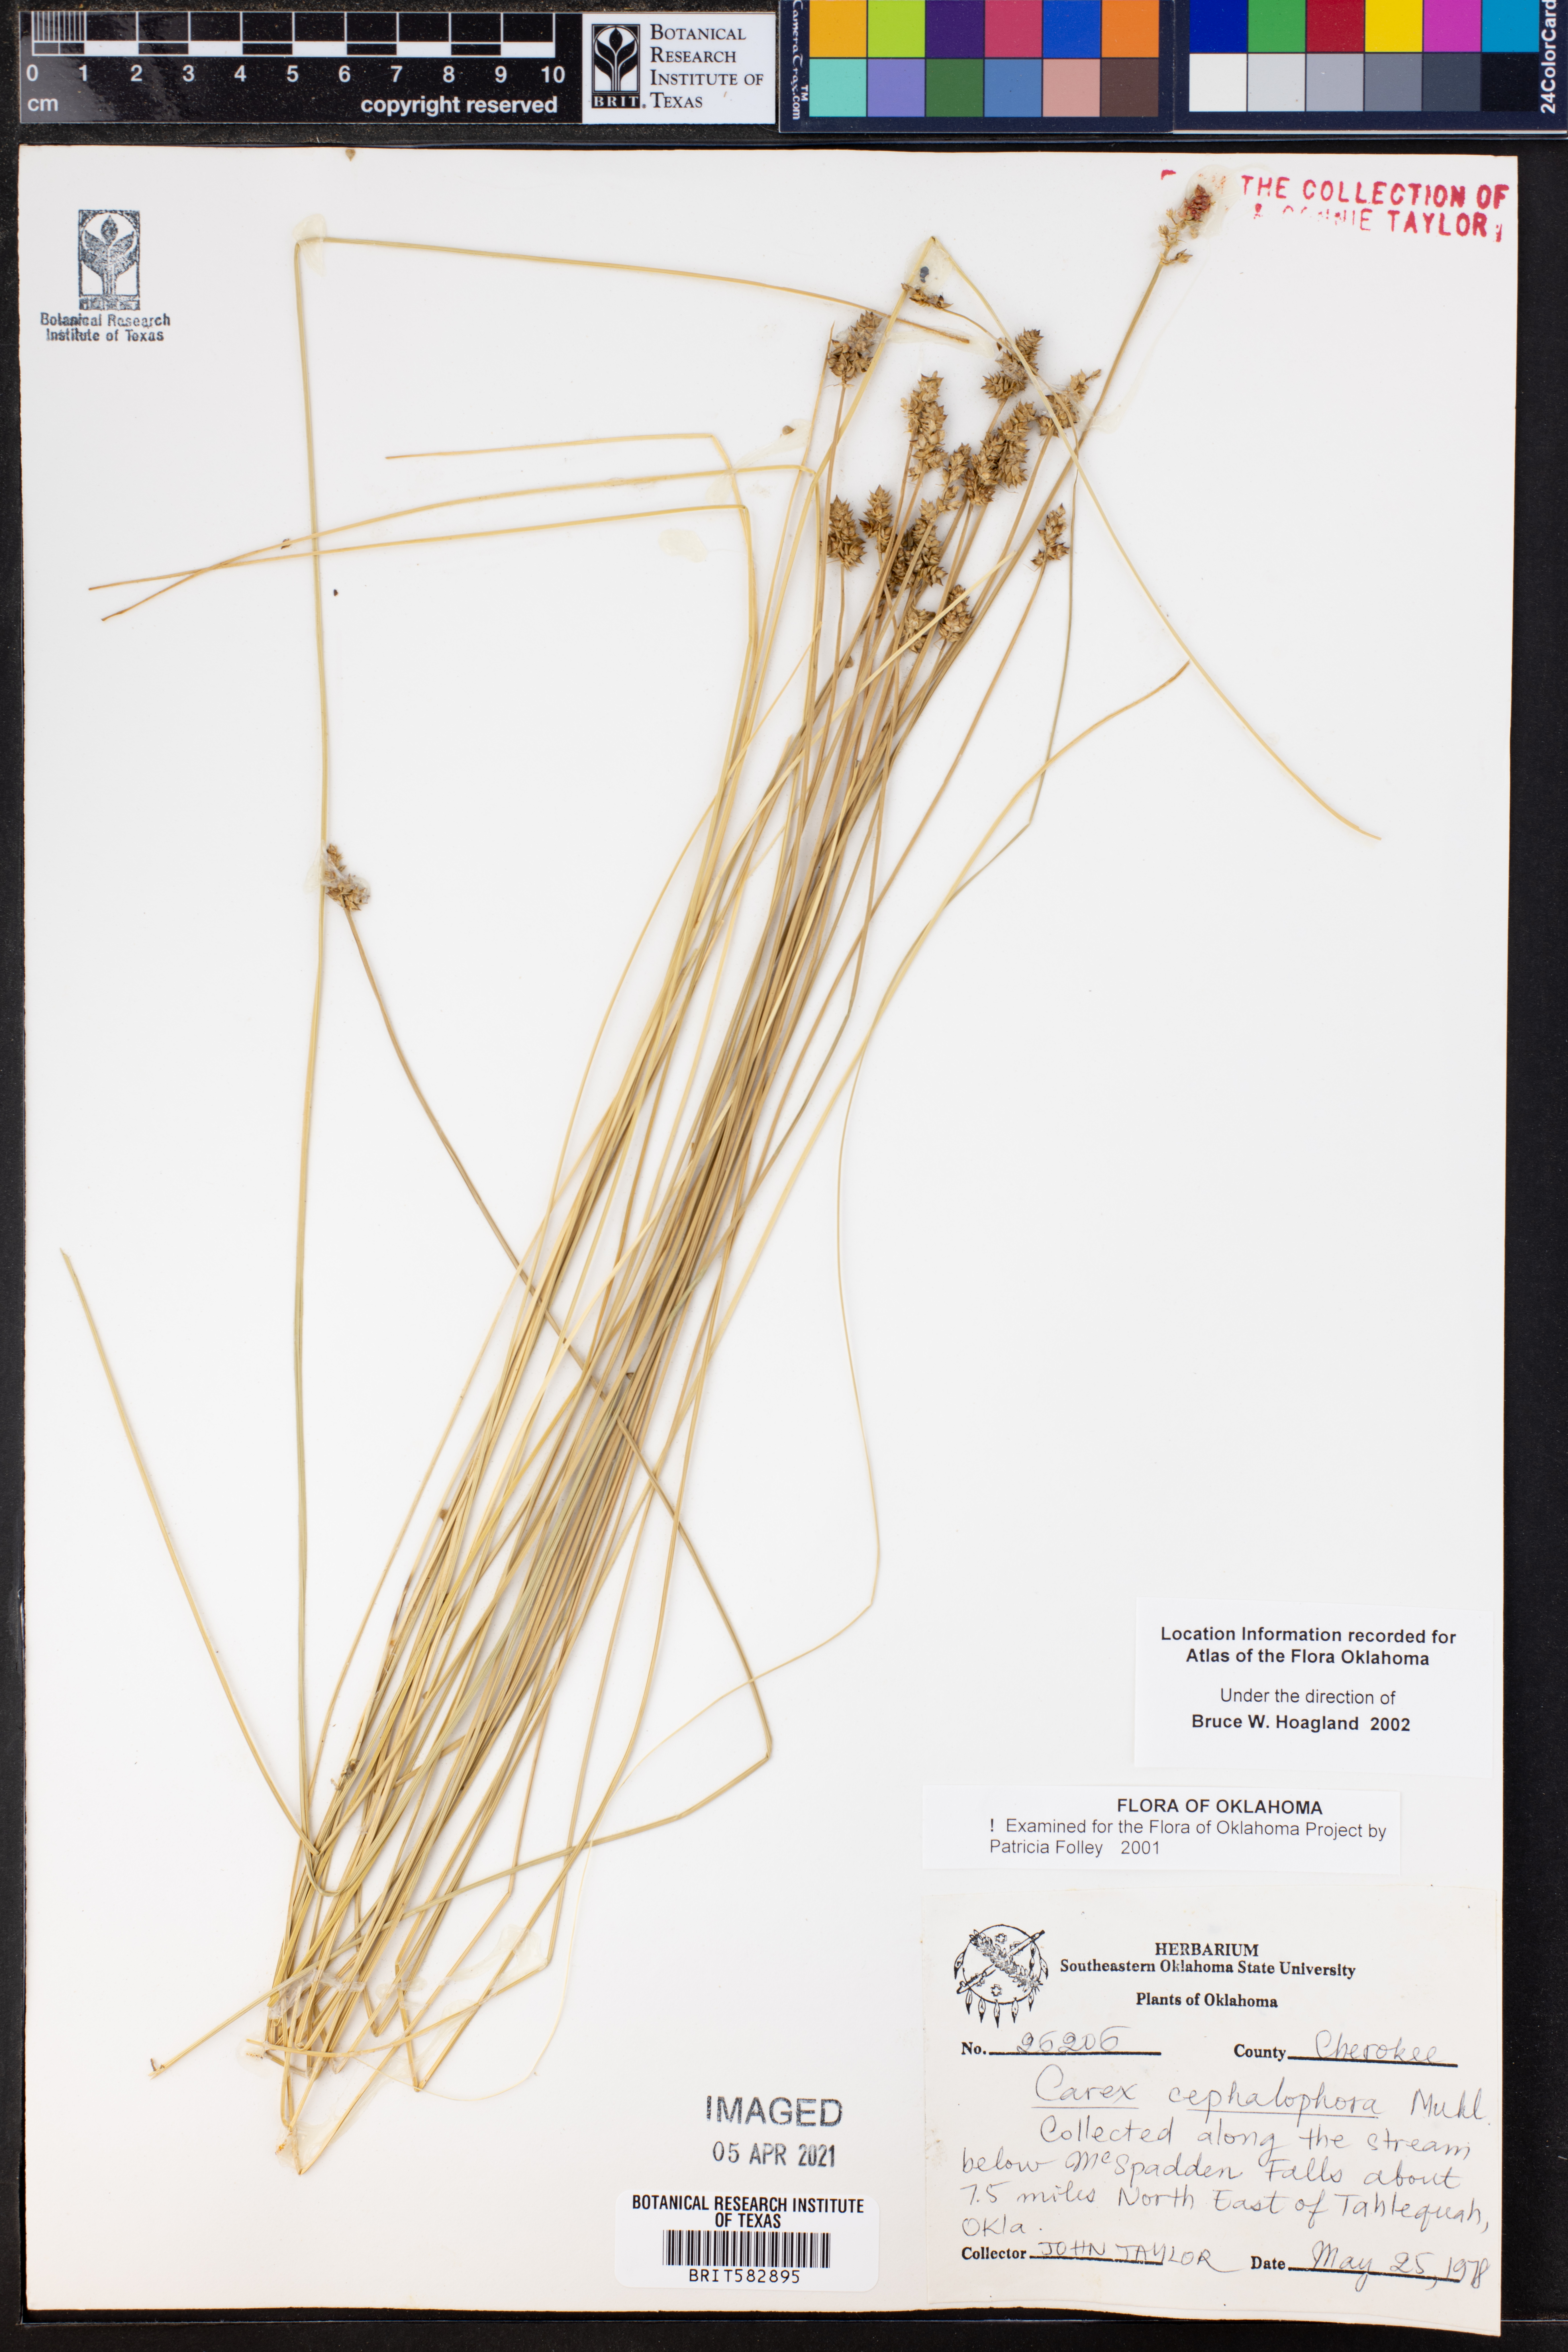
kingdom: Plantae
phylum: Tracheophyta
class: Liliopsida
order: Poales
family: Cyperaceae
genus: Carex
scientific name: Carex cephalophora
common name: Oval-headed sedge
